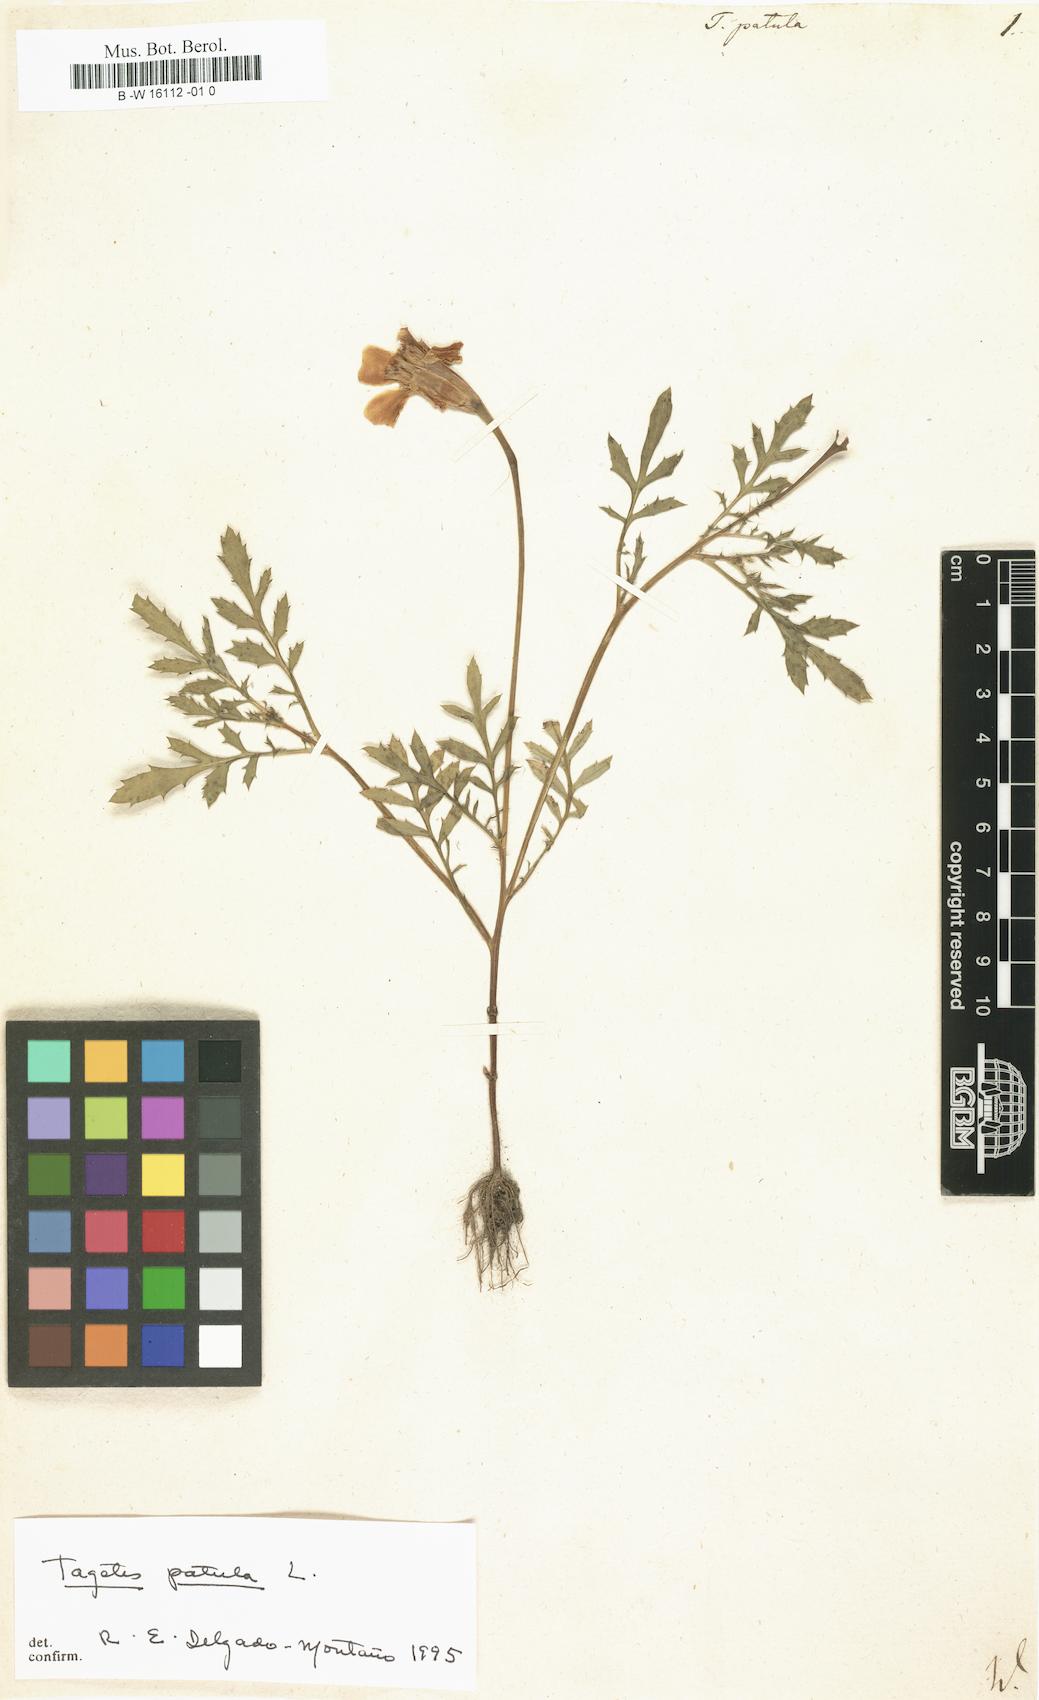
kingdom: Plantae
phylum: Tracheophyta
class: Magnoliopsida
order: Asterales
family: Asteraceae
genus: Tagetes
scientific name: Tagetes erecta
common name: African marigold
